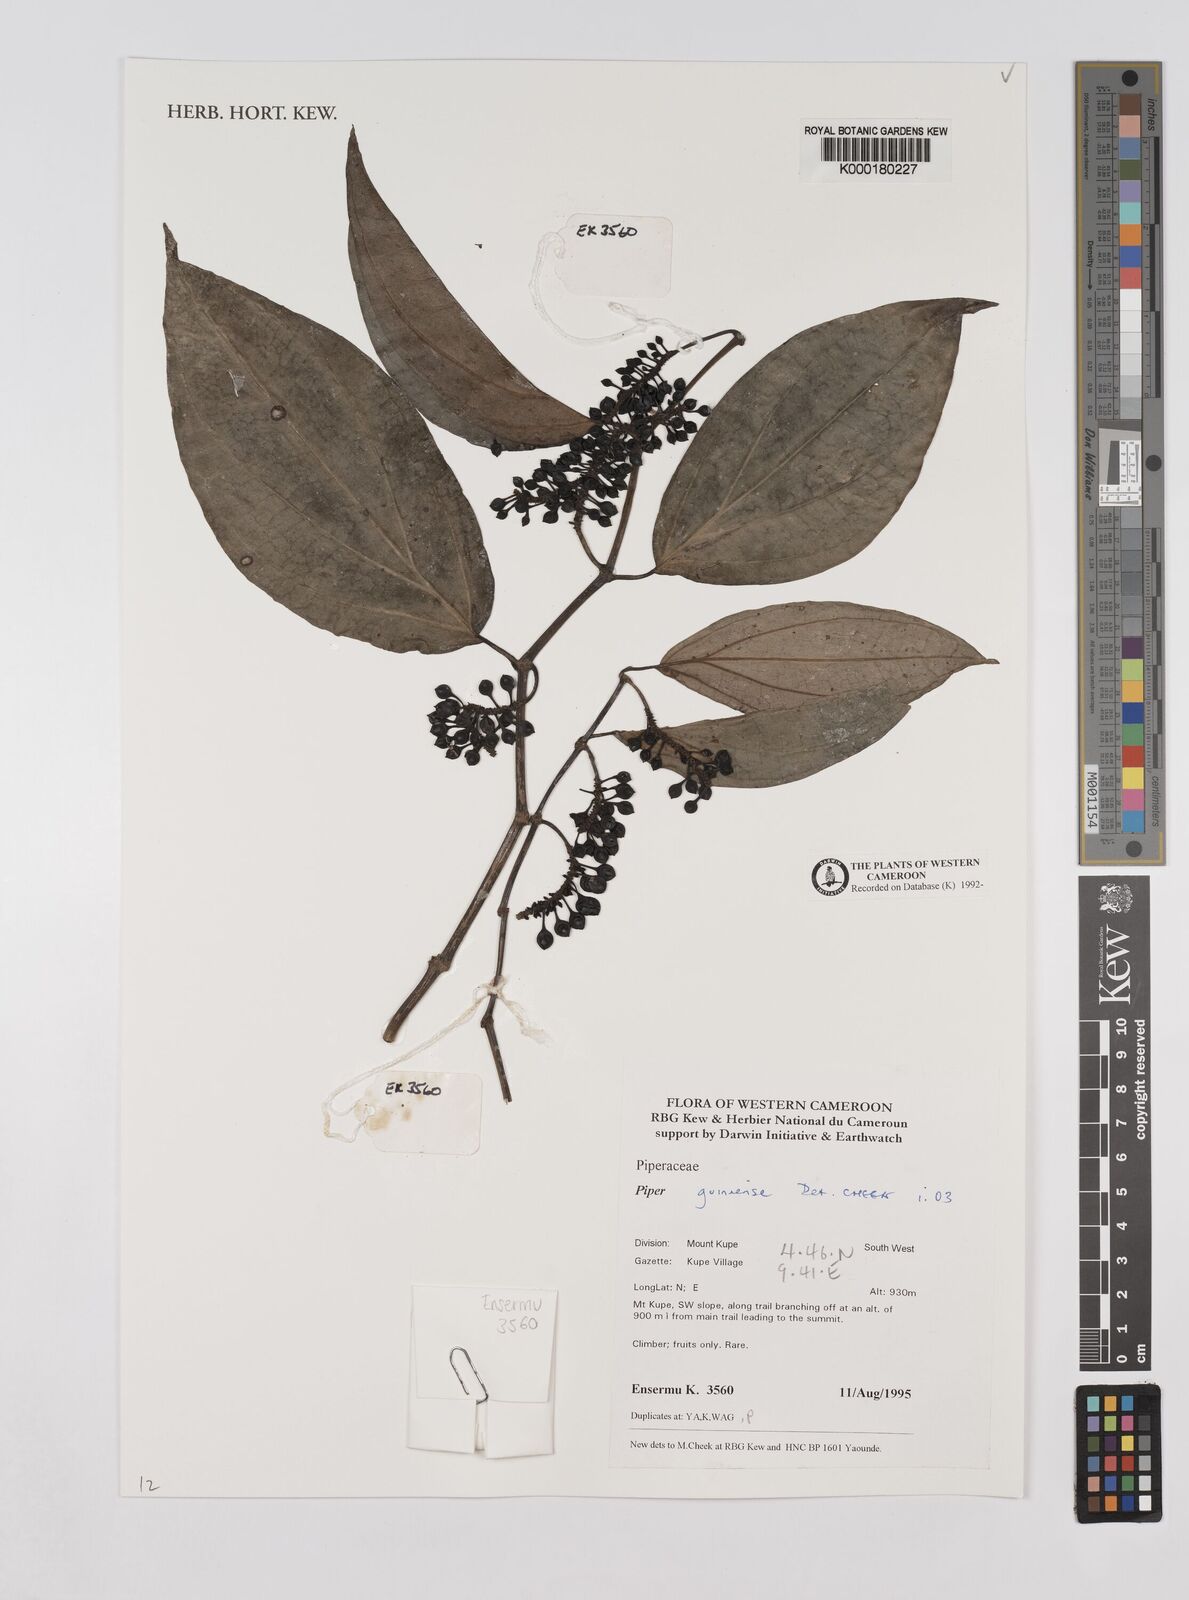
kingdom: Plantae
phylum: Tracheophyta
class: Magnoliopsida
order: Piperales
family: Piperaceae
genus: Piper
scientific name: Piper
